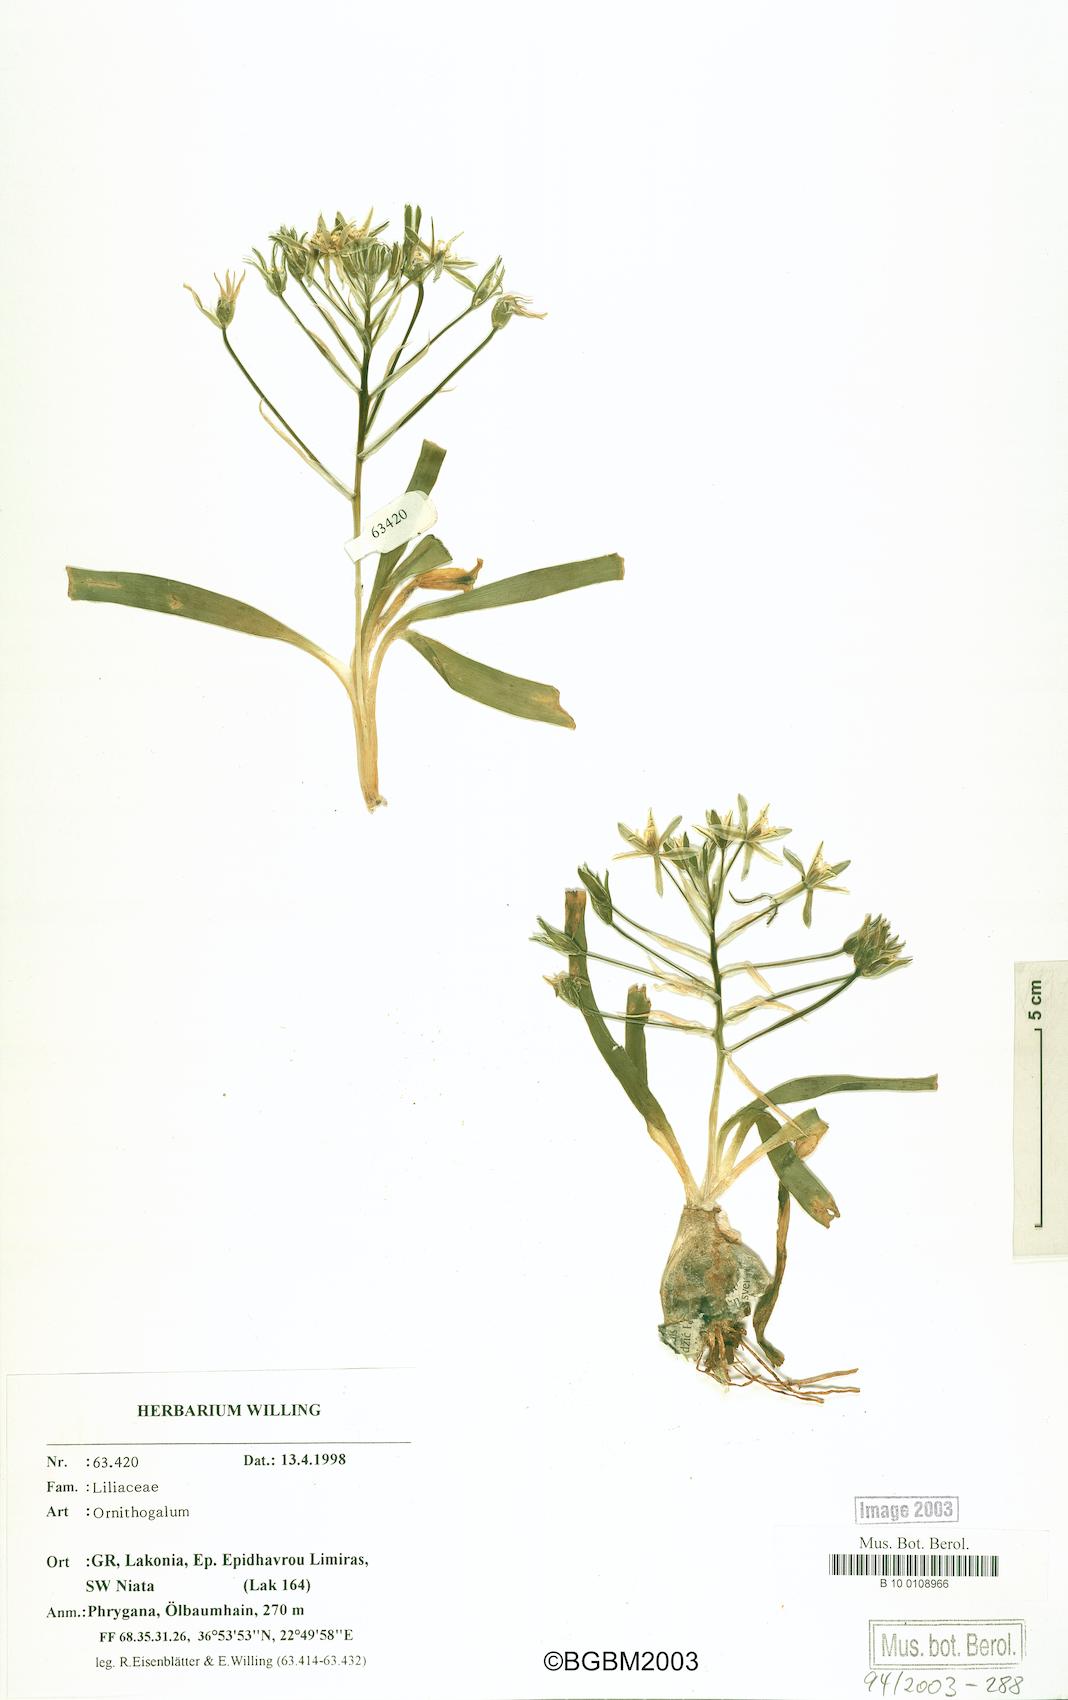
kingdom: Plantae
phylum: Tracheophyta
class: Liliopsida
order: Asparagales
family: Asparagaceae
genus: Ornithogalum
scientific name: Ornithogalum
